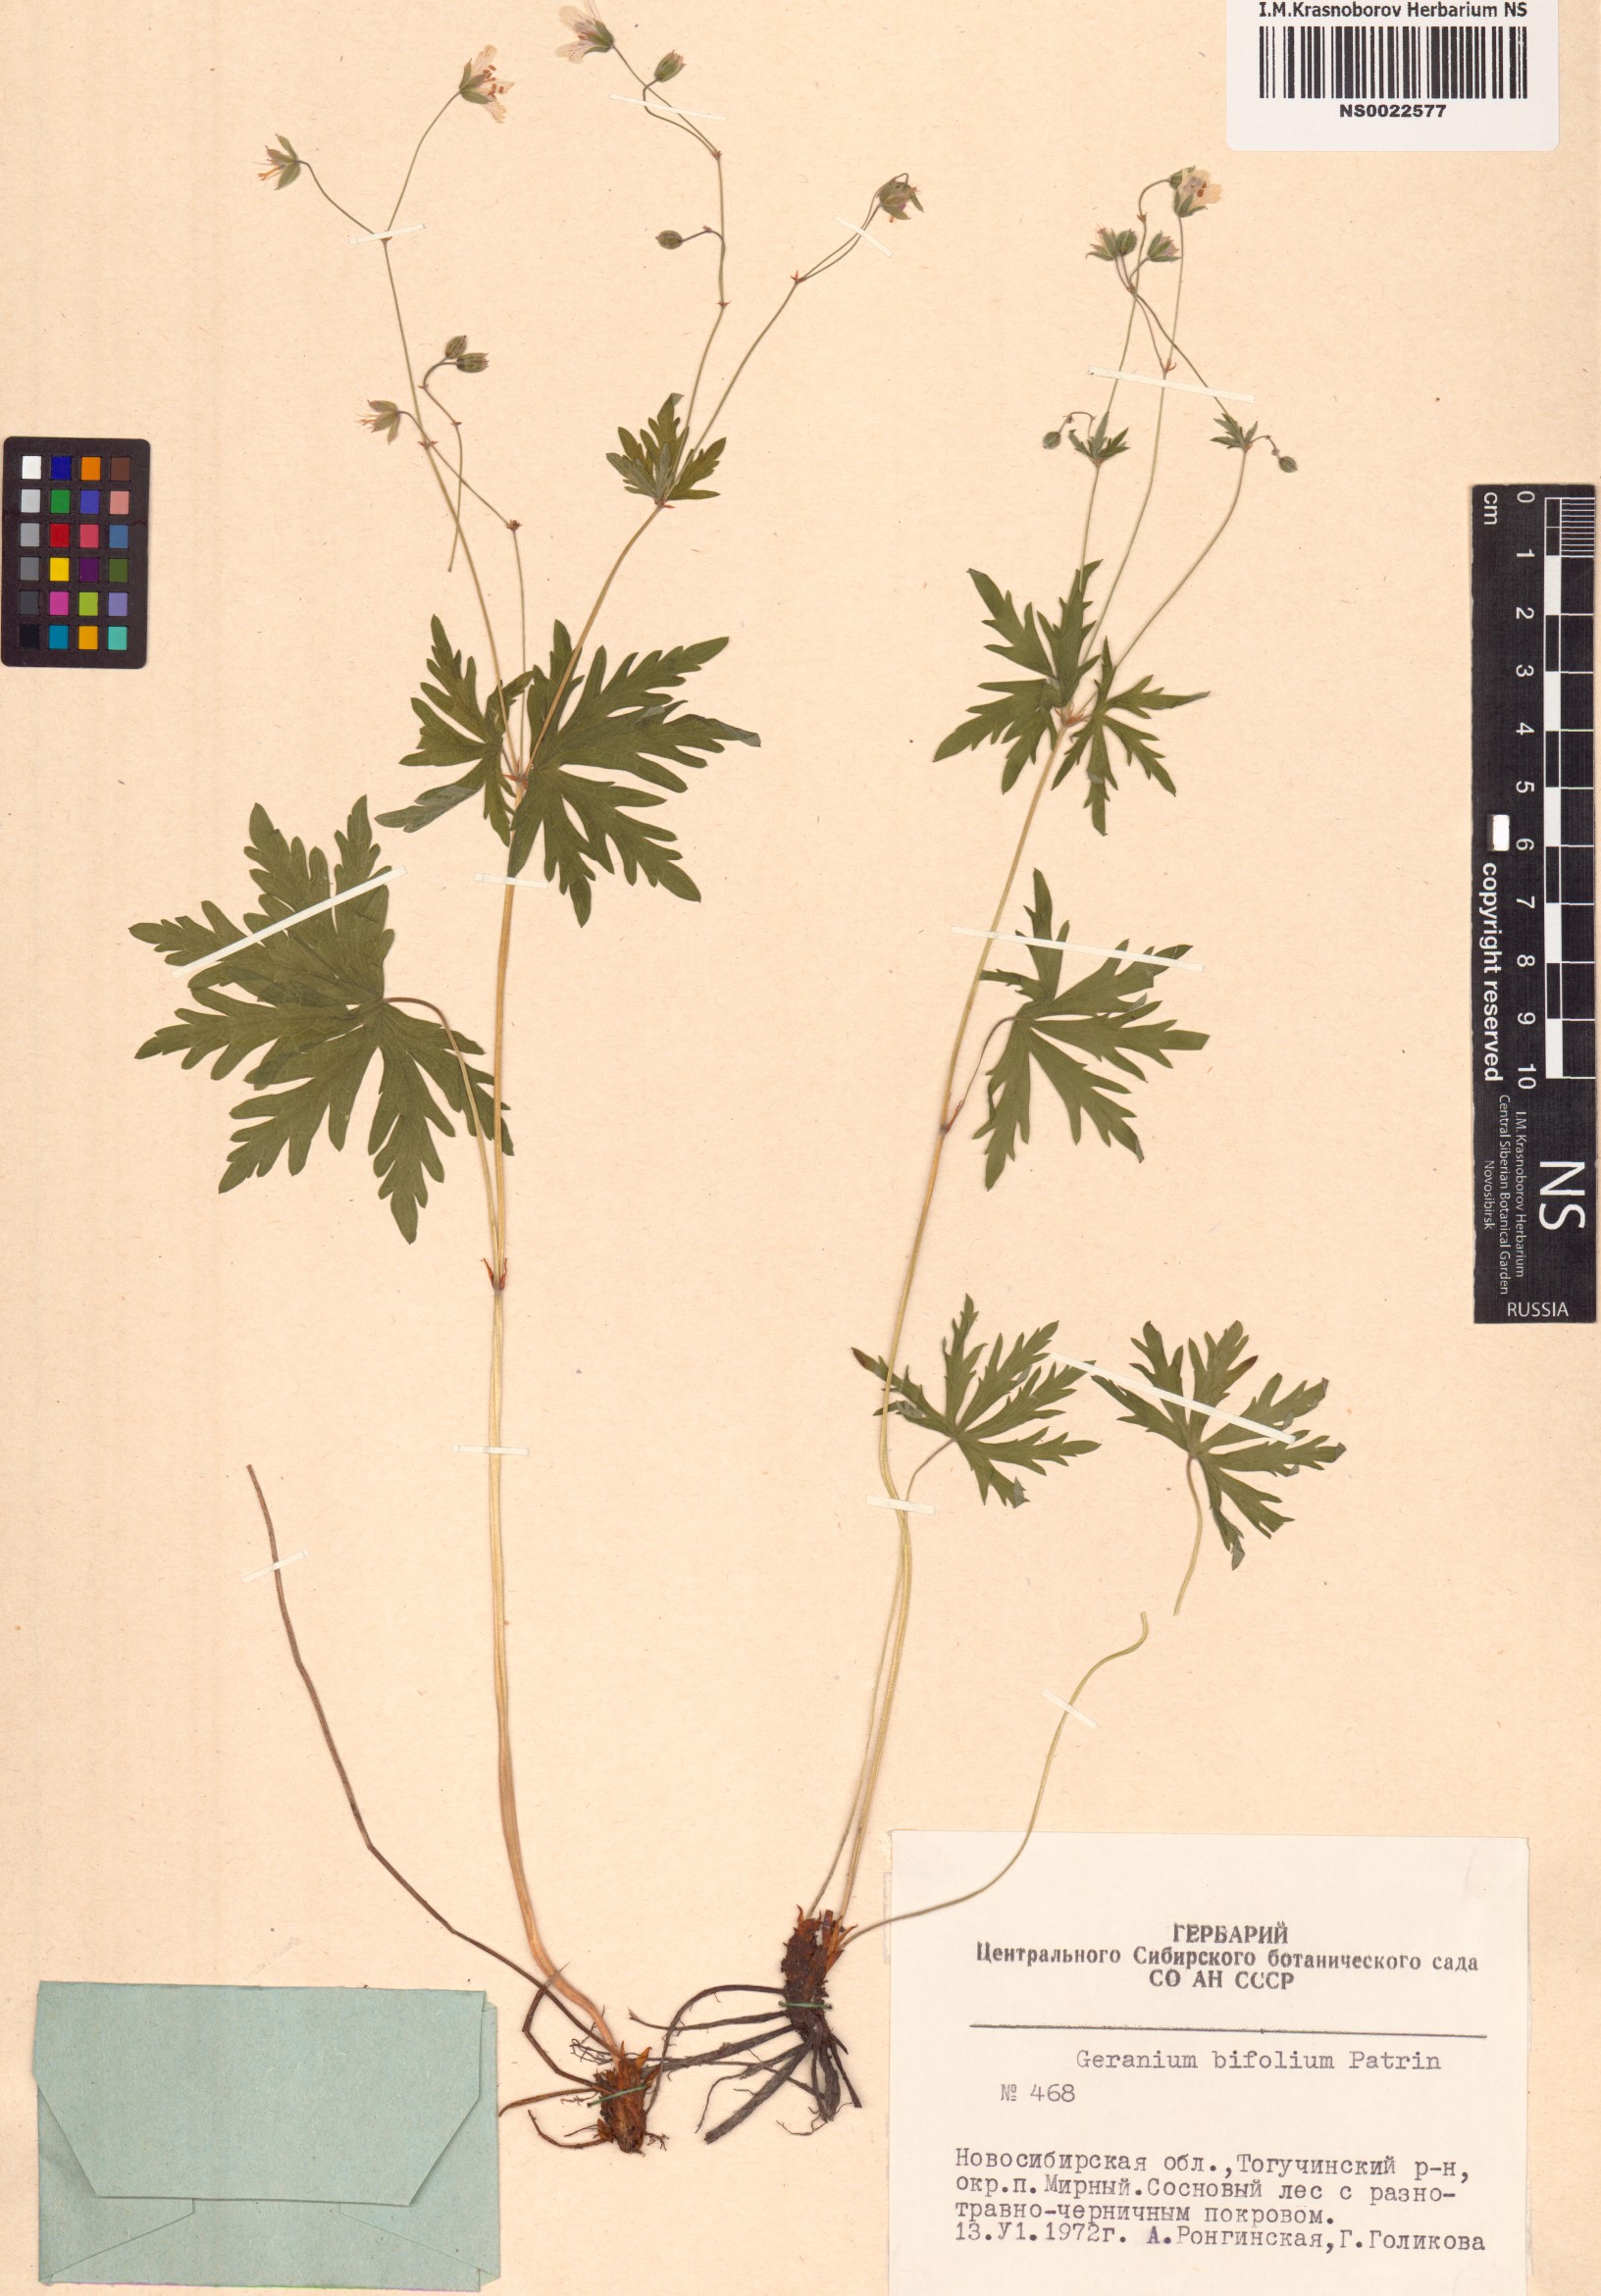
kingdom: Plantae
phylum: Tracheophyta
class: Magnoliopsida
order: Geraniales
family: Geraniaceae
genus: Geranium
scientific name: Geranium pseudosibiricum
